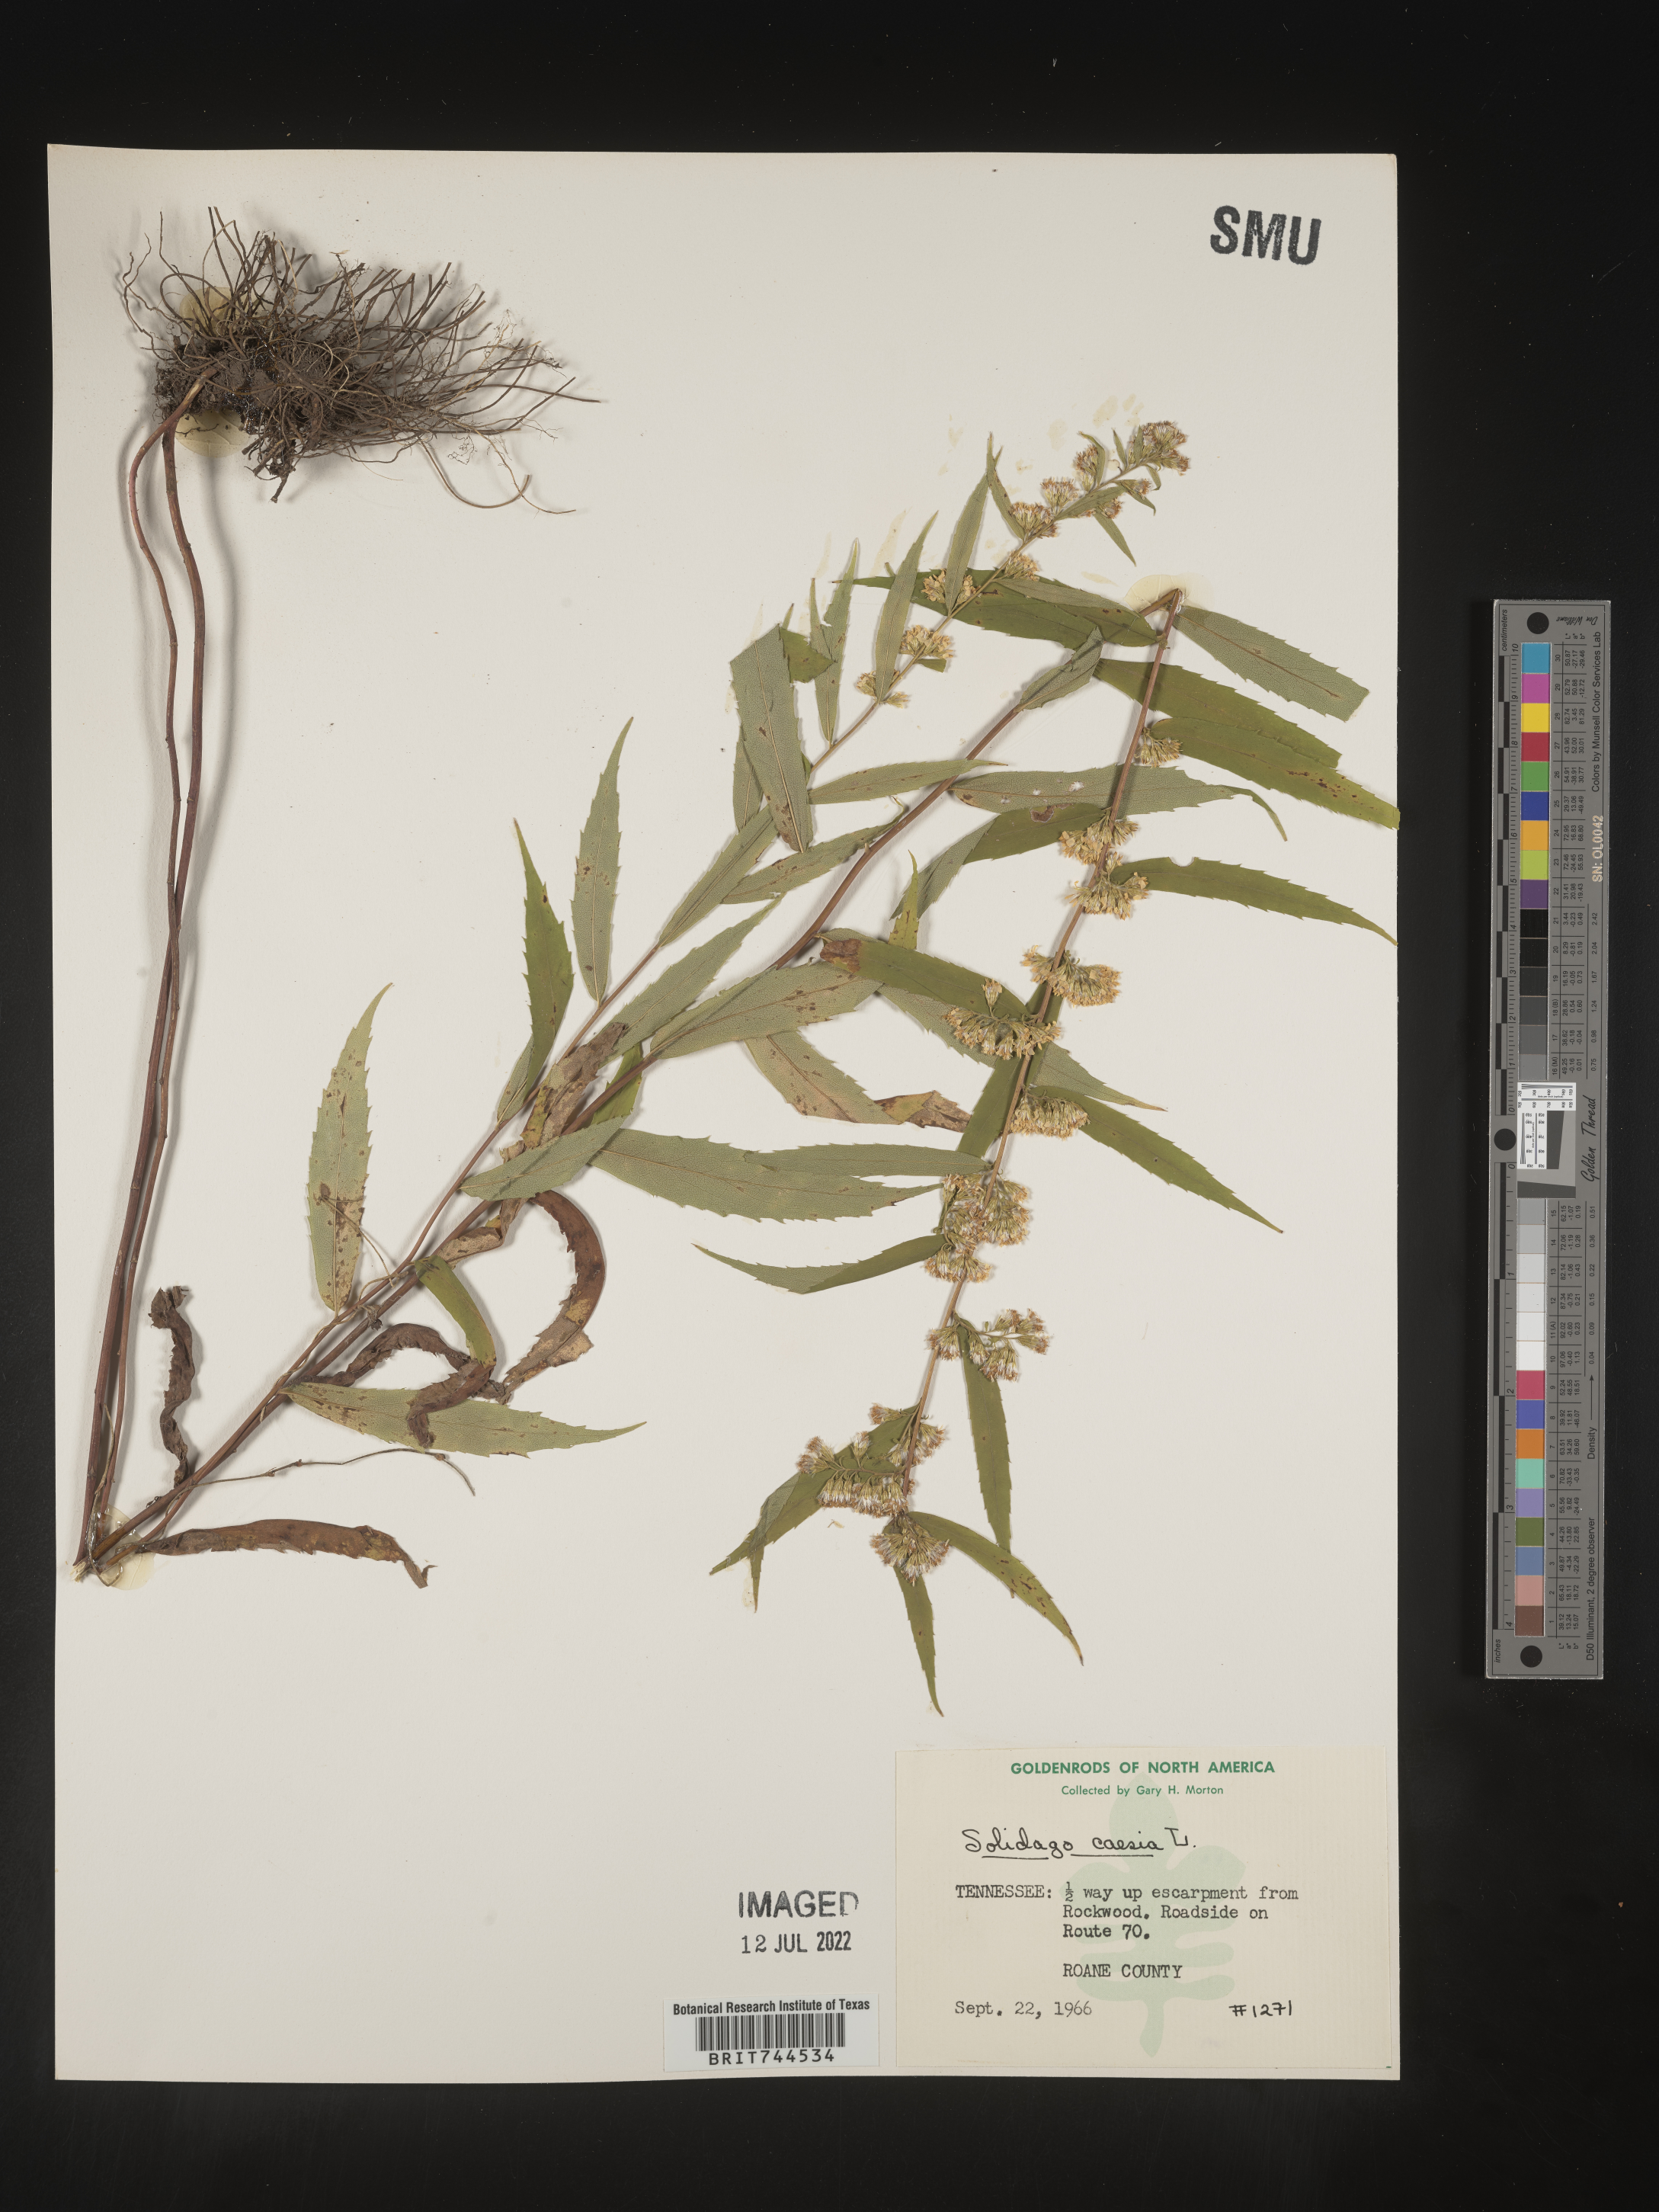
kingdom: Plantae
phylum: Tracheophyta
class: Magnoliopsida
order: Asterales
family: Asteraceae
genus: Solidago
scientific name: Solidago caesia
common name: Woodland goldenrod
